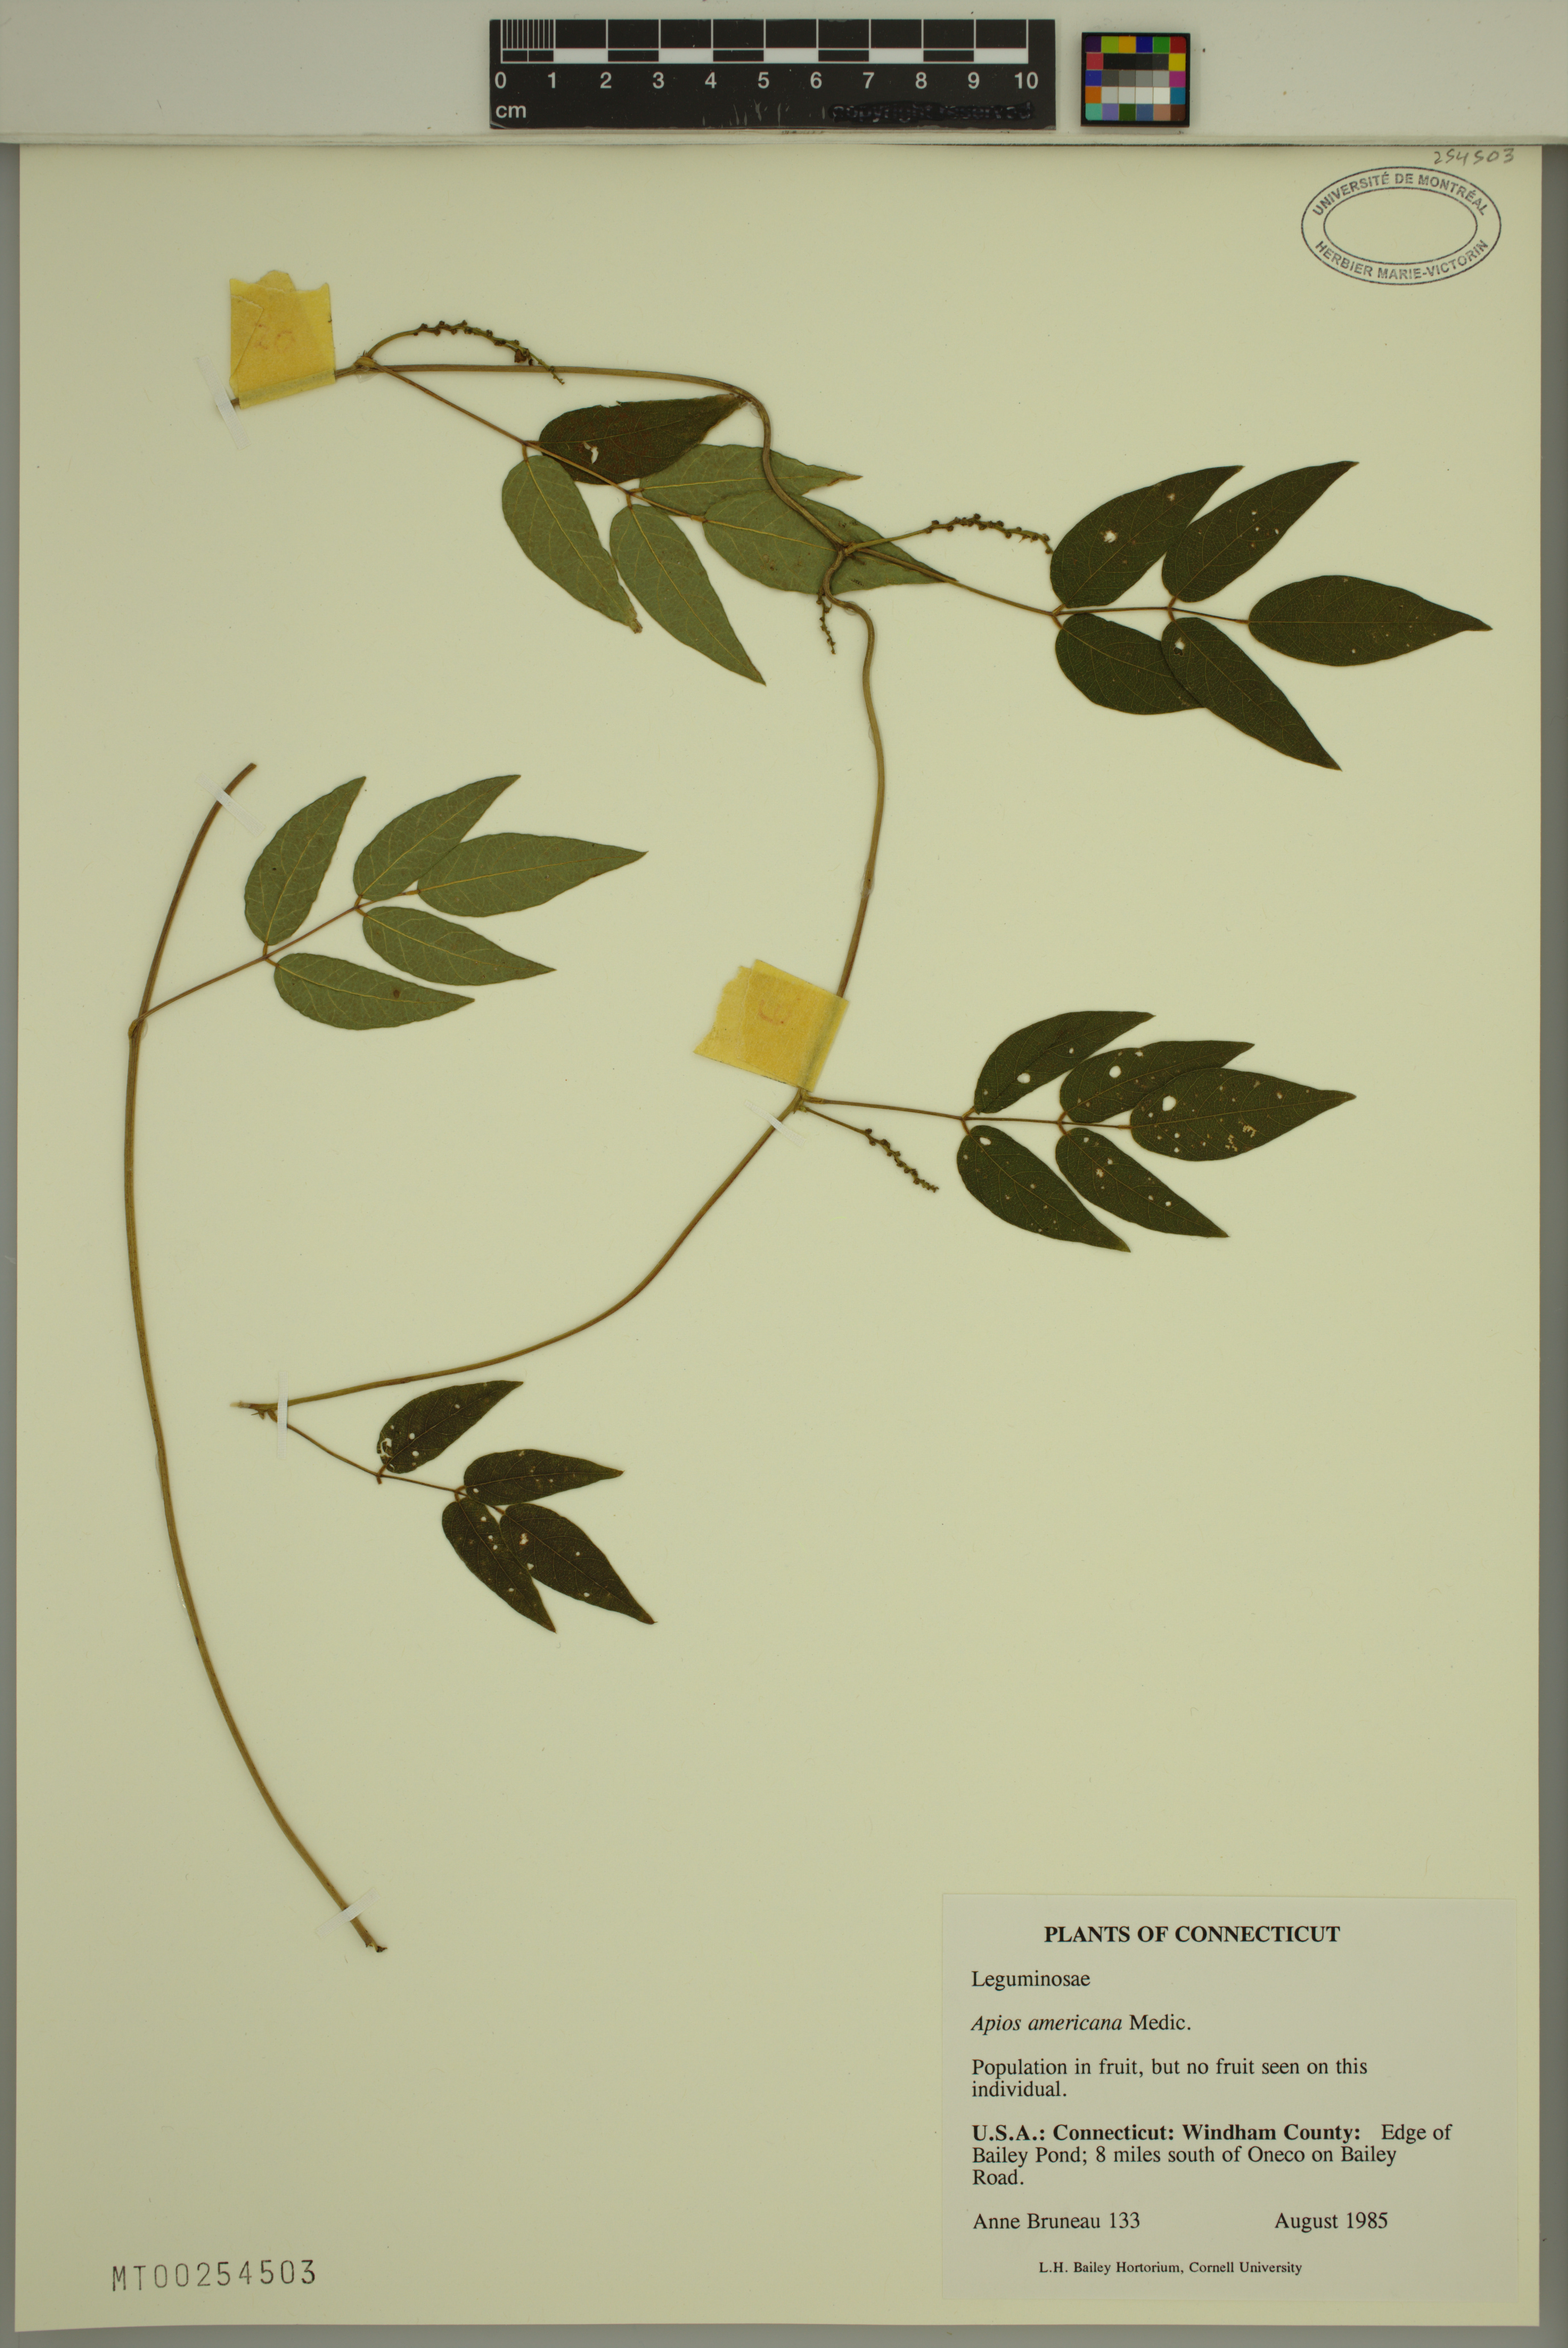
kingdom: Plantae
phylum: Tracheophyta
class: Magnoliopsida
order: Fabales
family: Fabaceae
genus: Apios
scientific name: Apios americana
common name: American potato-bean
